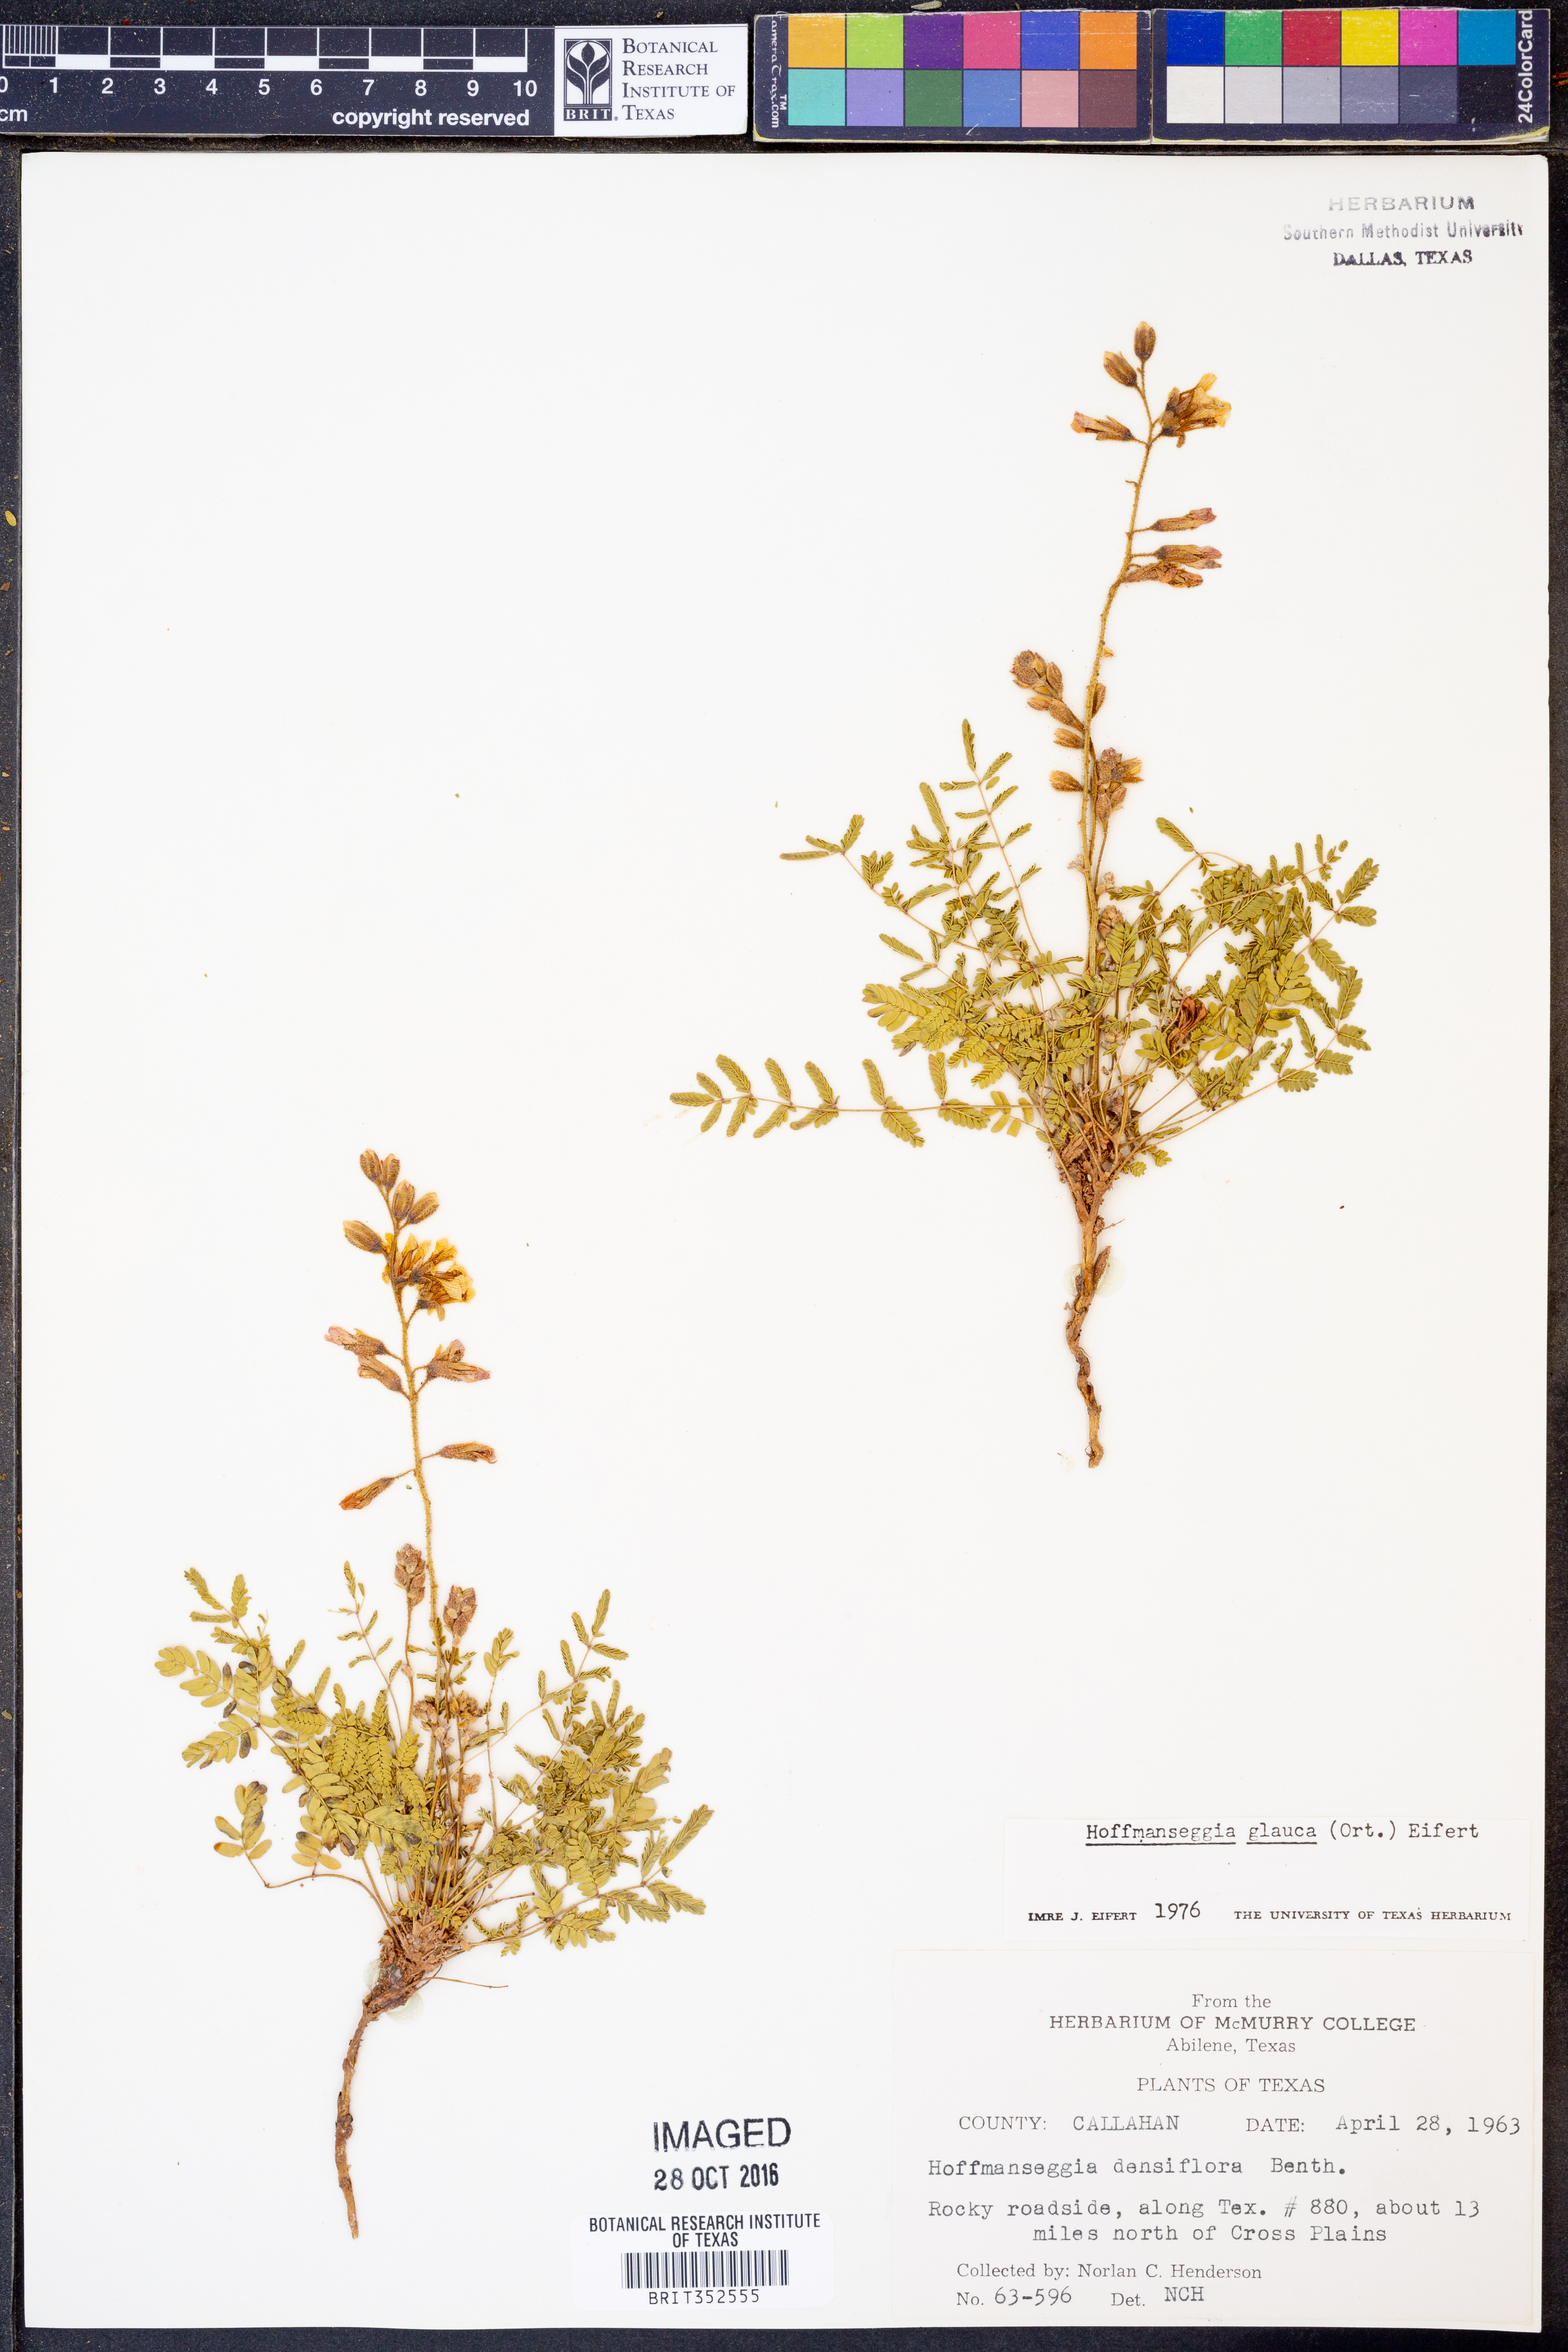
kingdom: Plantae
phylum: Tracheophyta
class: Magnoliopsida
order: Fabales
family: Fabaceae
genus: Hoffmannseggia
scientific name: Hoffmannseggia glauca
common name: Pignut
